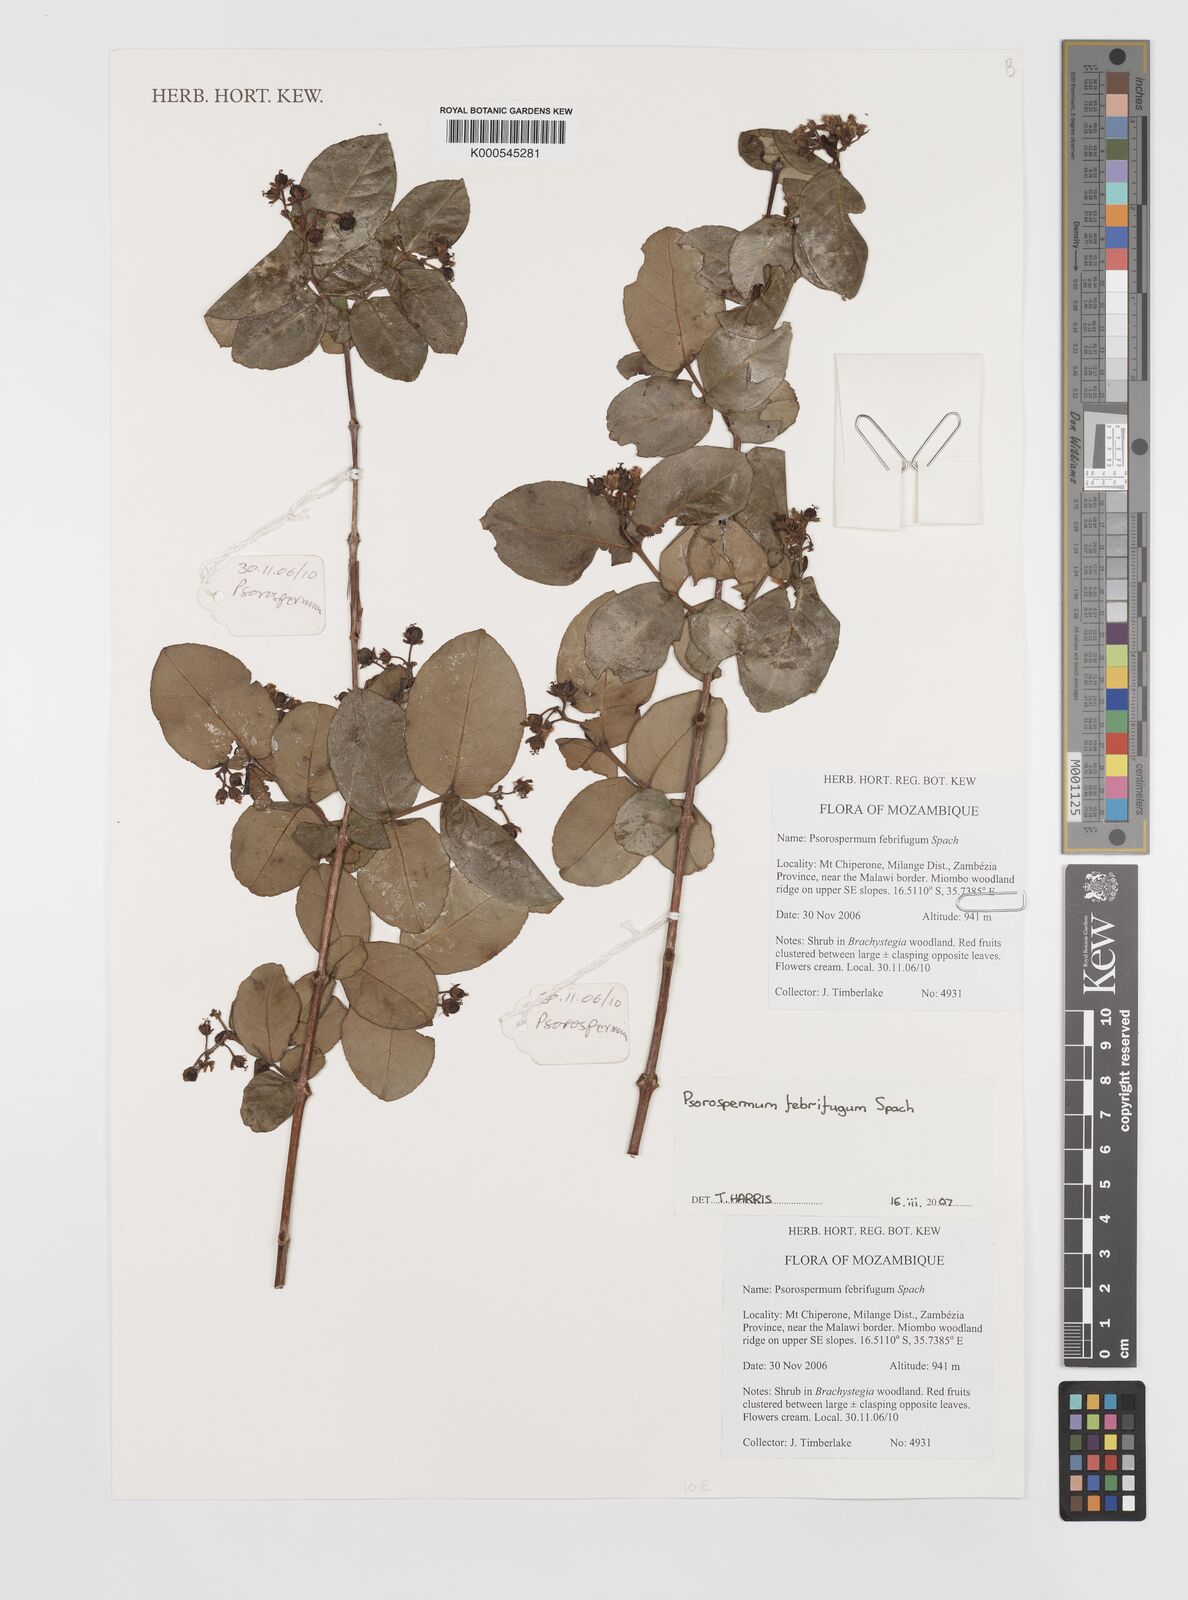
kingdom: Plantae
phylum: Tracheophyta
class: Magnoliopsida
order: Malpighiales
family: Hypericaceae
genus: Psorospermum
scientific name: Psorospermum febrifugum
